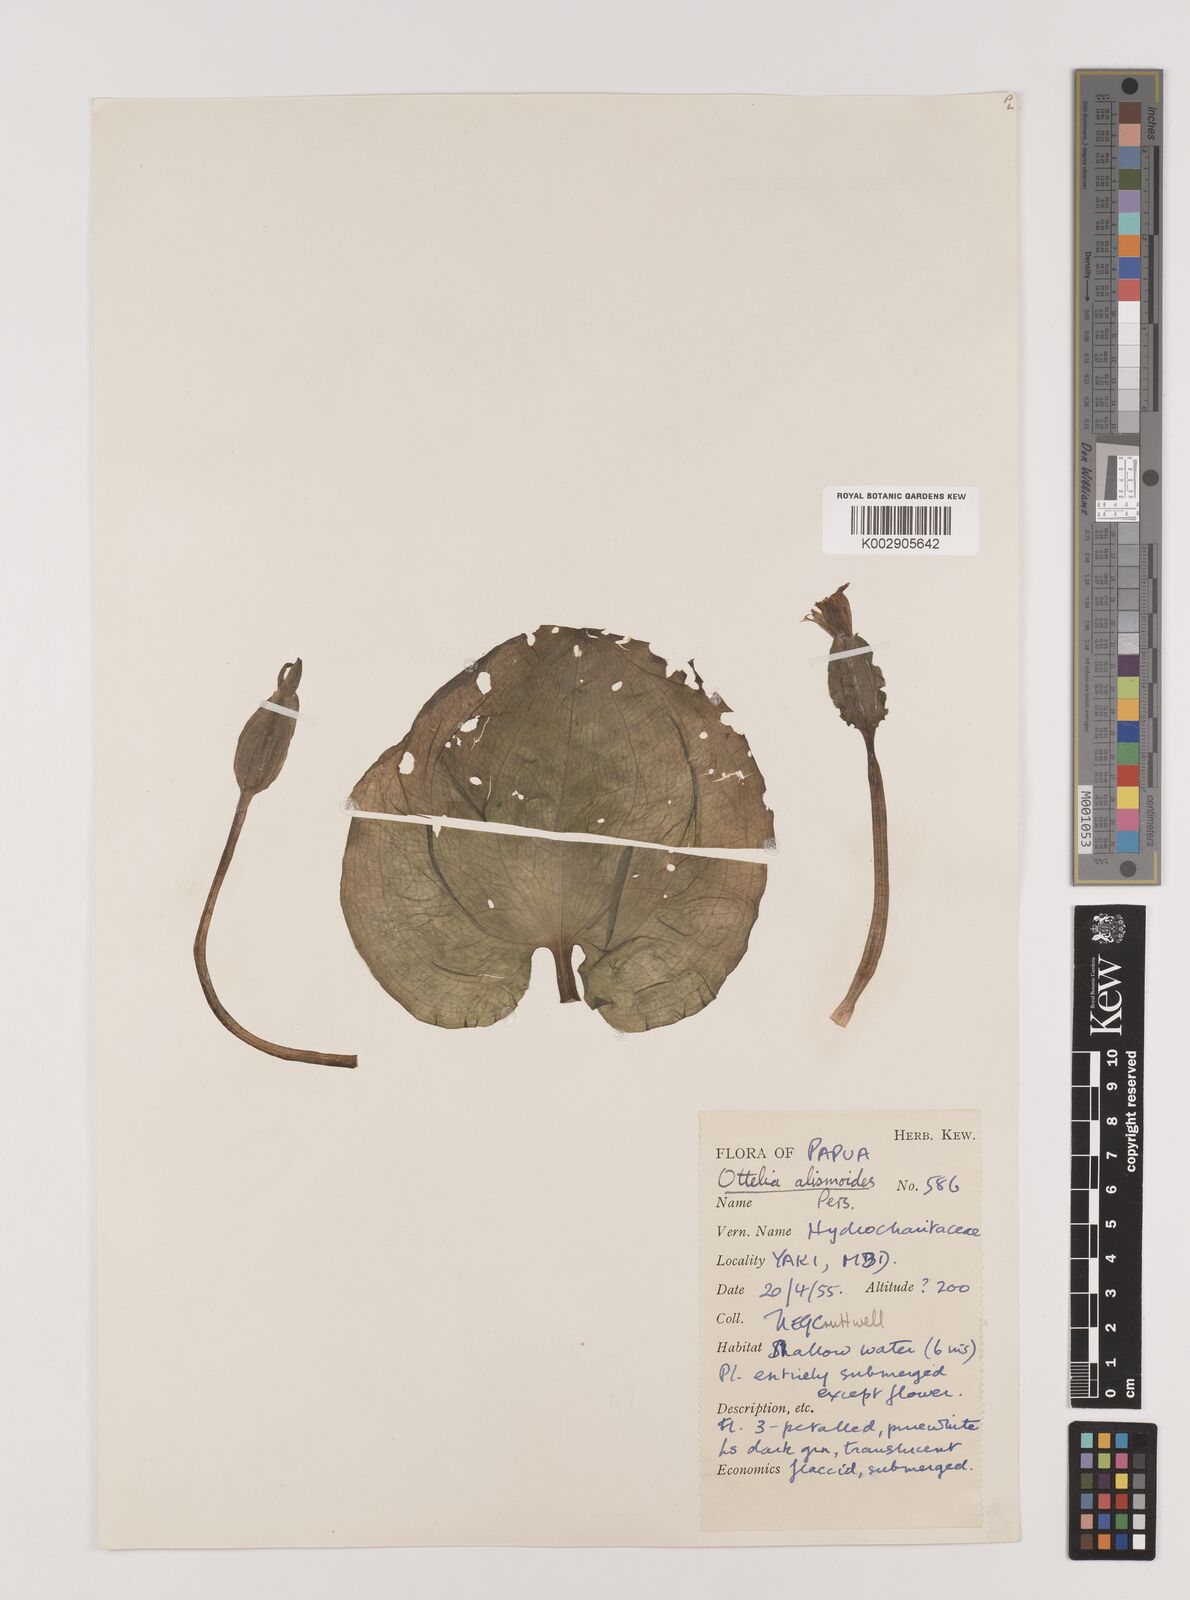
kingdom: Plantae
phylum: Tracheophyta
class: Liliopsida
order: Alismatales
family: Hydrocharitaceae
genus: Ottelia
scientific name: Ottelia alismoides
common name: Duck-lettuce
